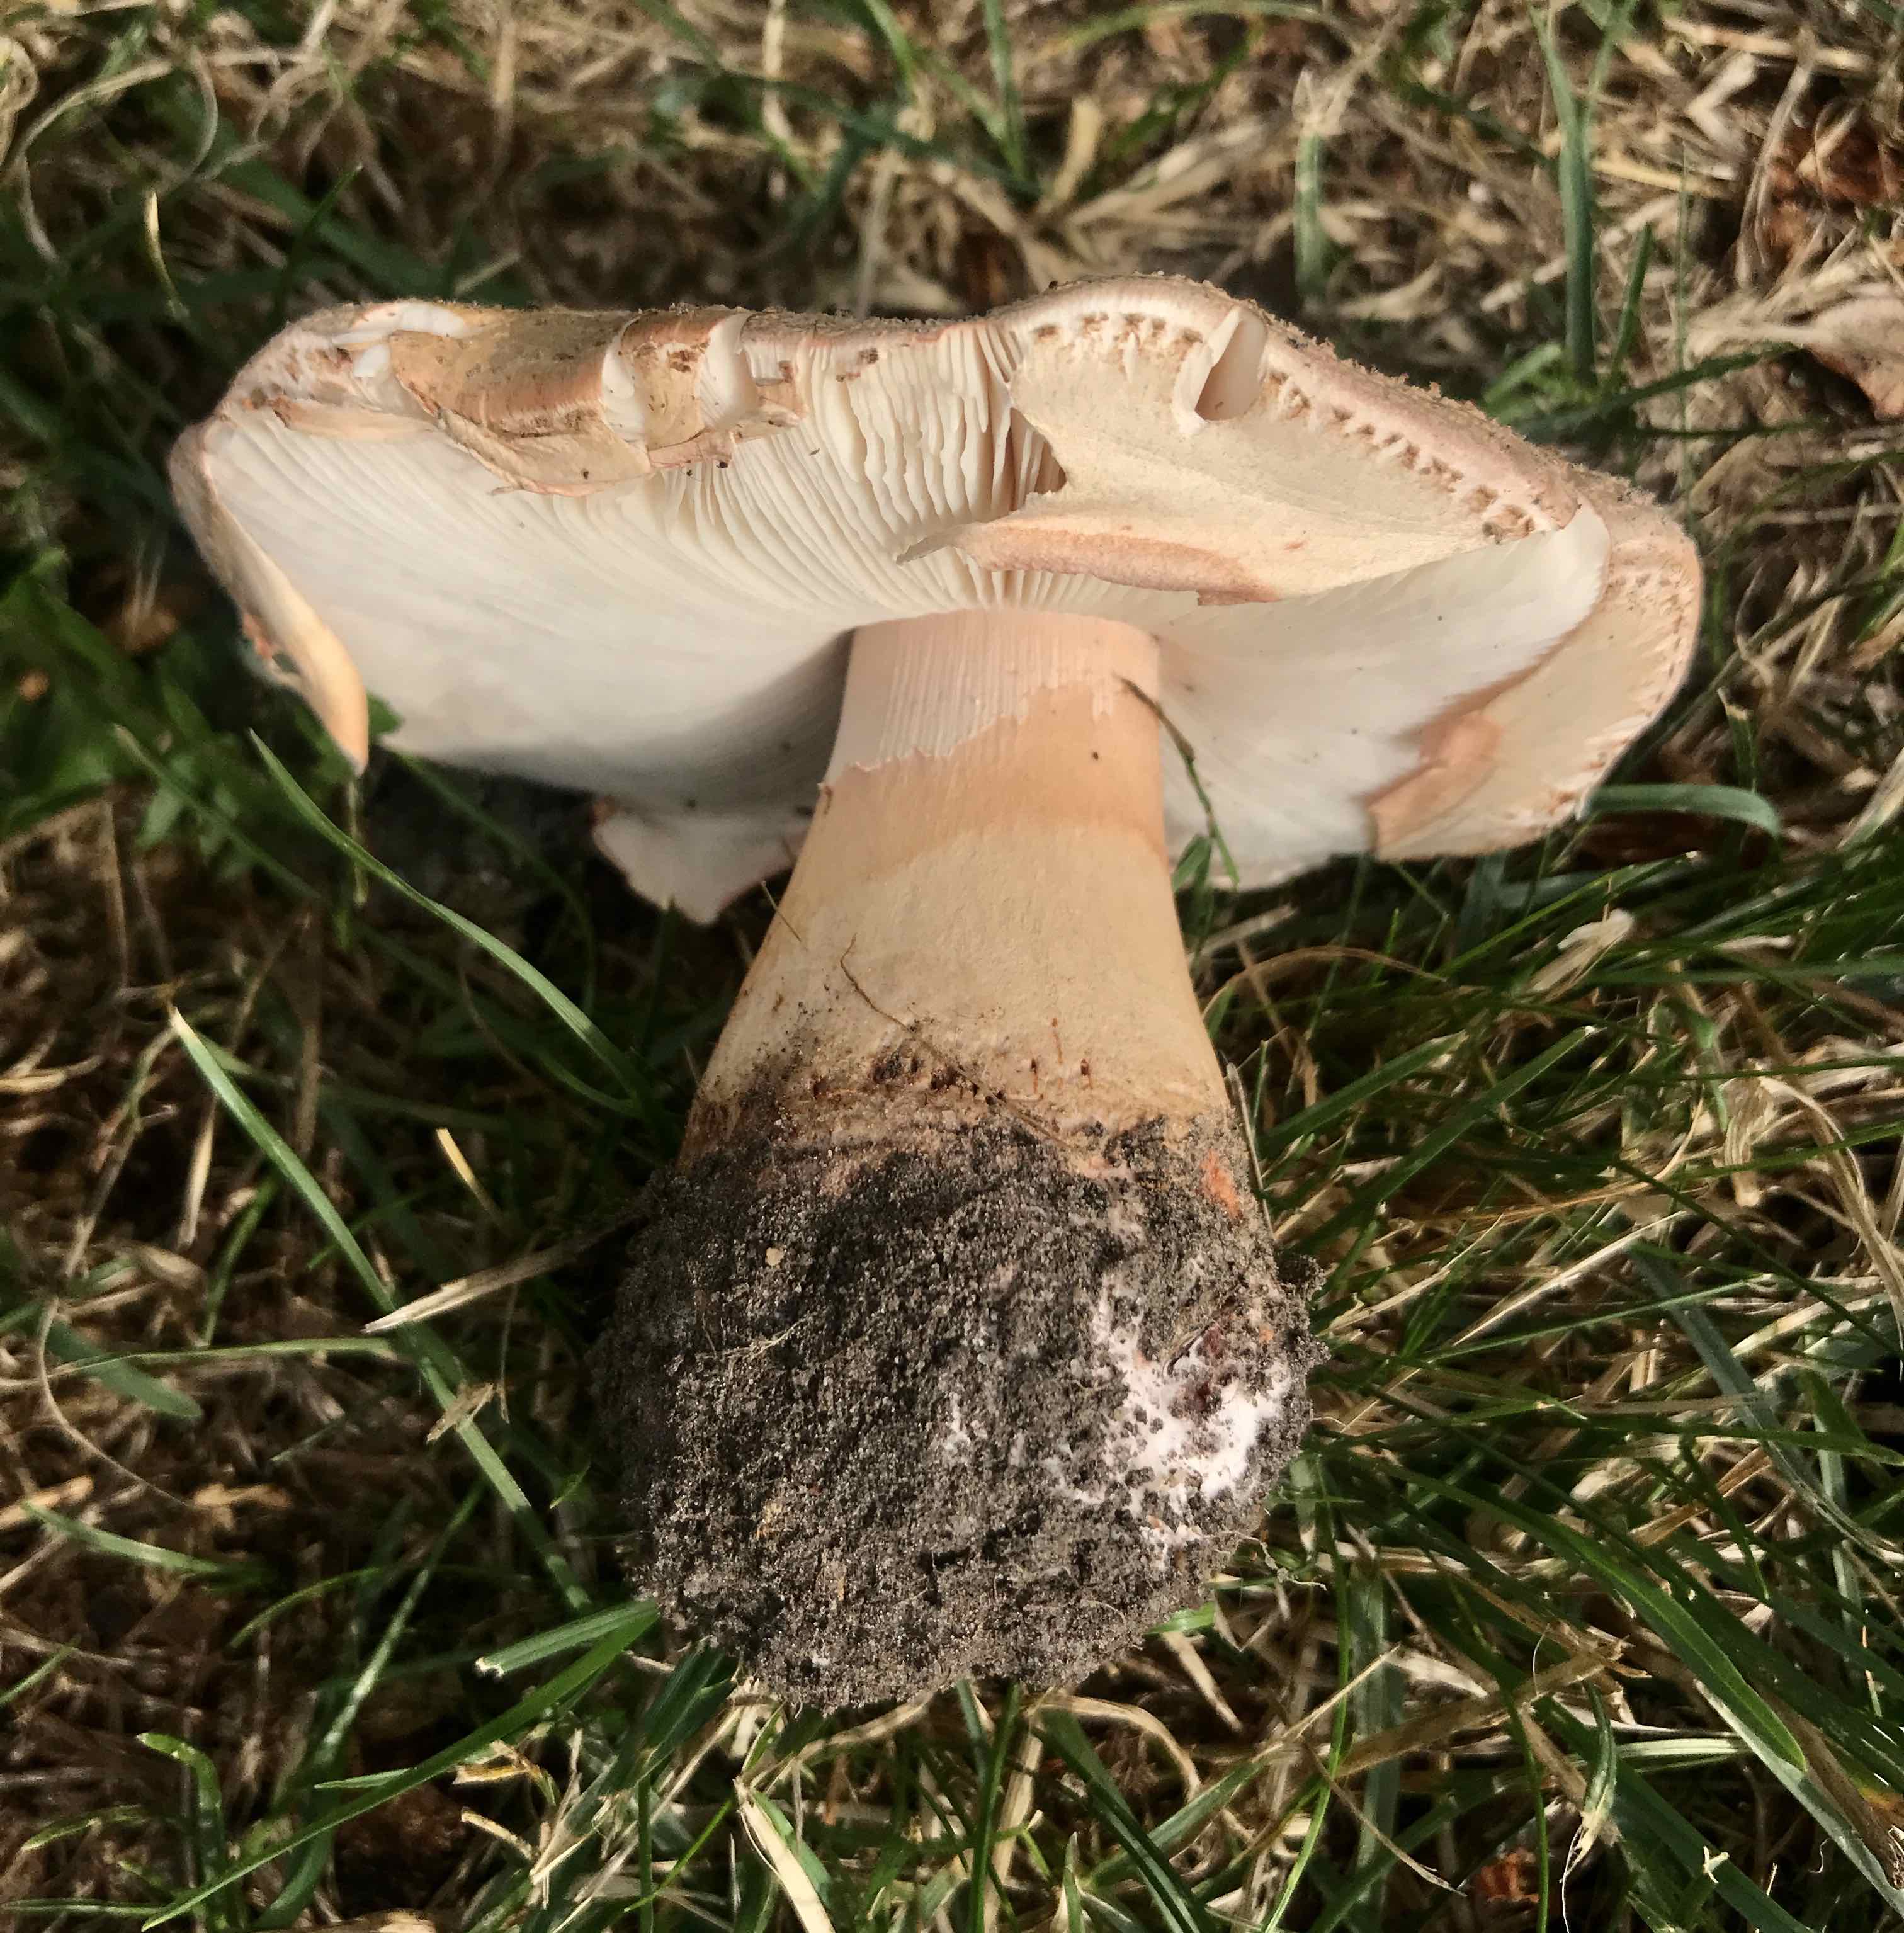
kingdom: Fungi
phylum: Basidiomycota
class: Agaricomycetes
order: Agaricales
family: Amanitaceae
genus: Amanita
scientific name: Amanita rubescens
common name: rødmende fluesvamp
